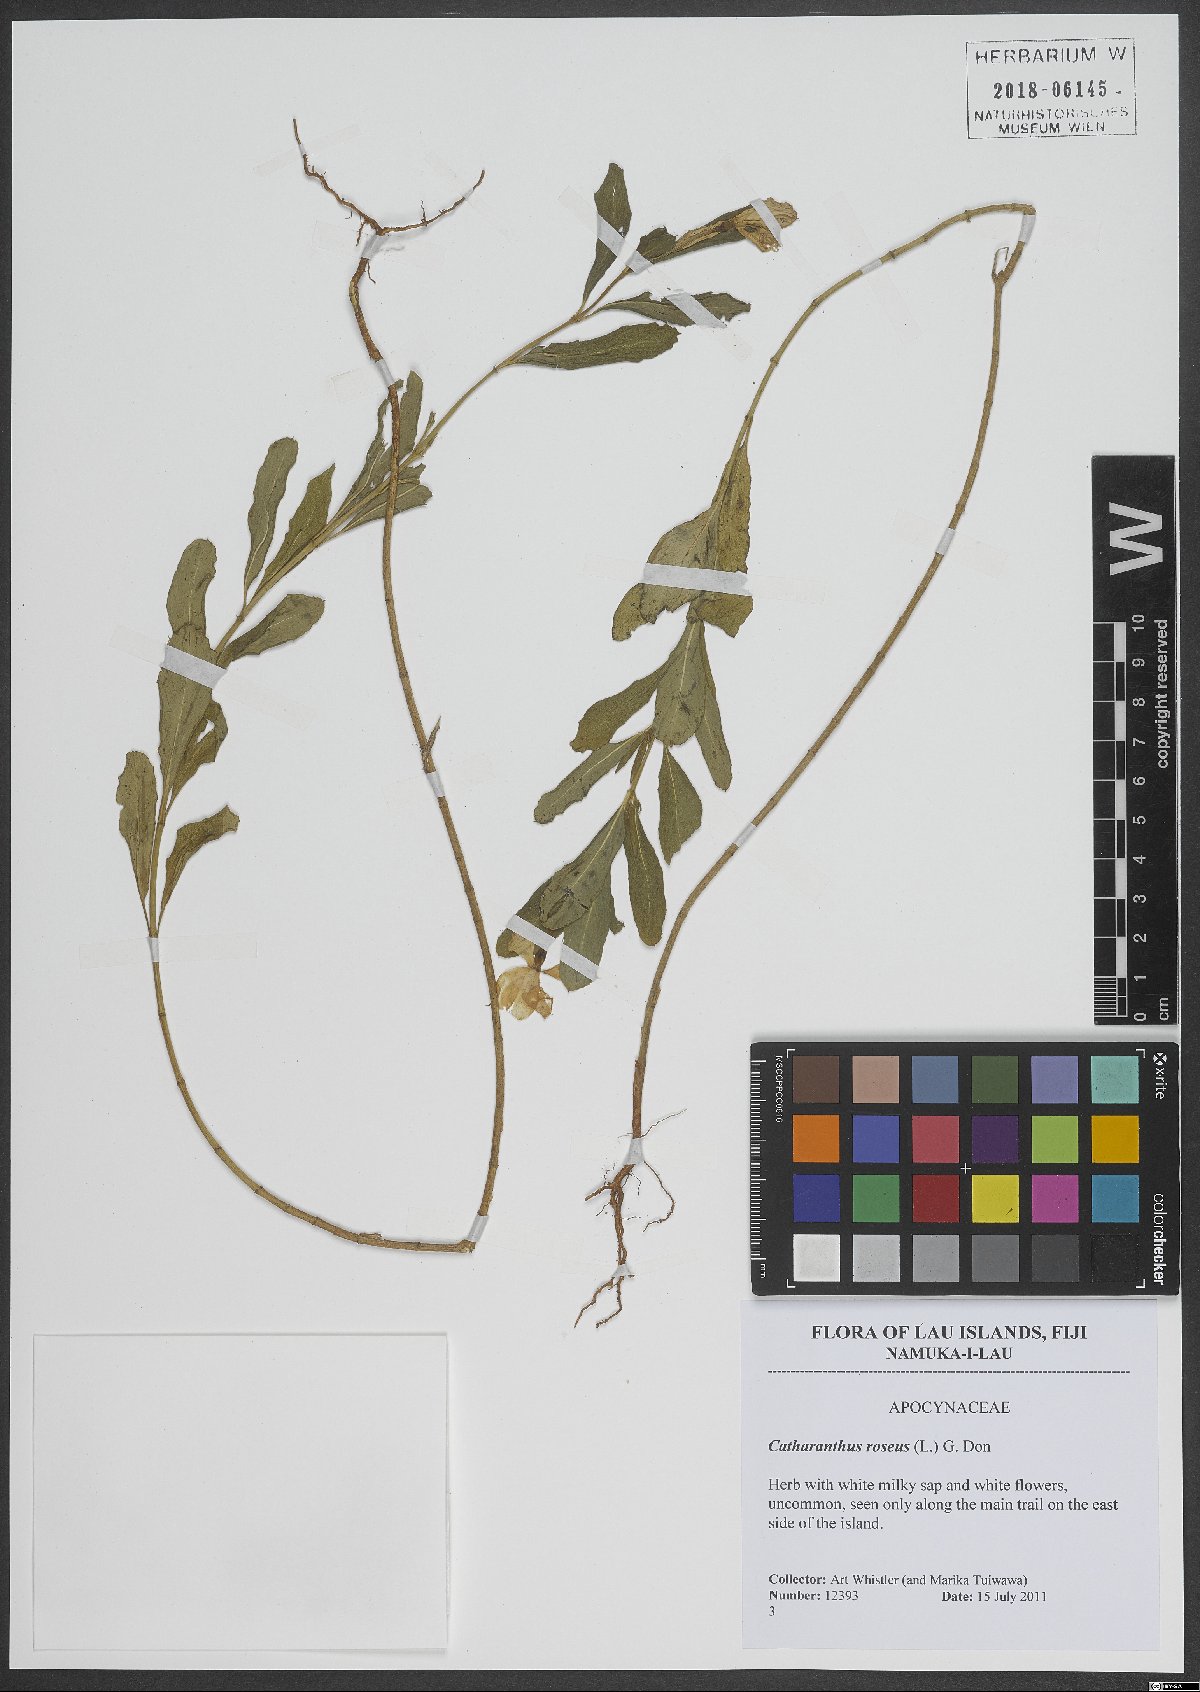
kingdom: Plantae
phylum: Tracheophyta
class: Magnoliopsida
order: Gentianales
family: Apocynaceae
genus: Catharanthus
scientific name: Catharanthus roseus
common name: Madagascar periwinkle
